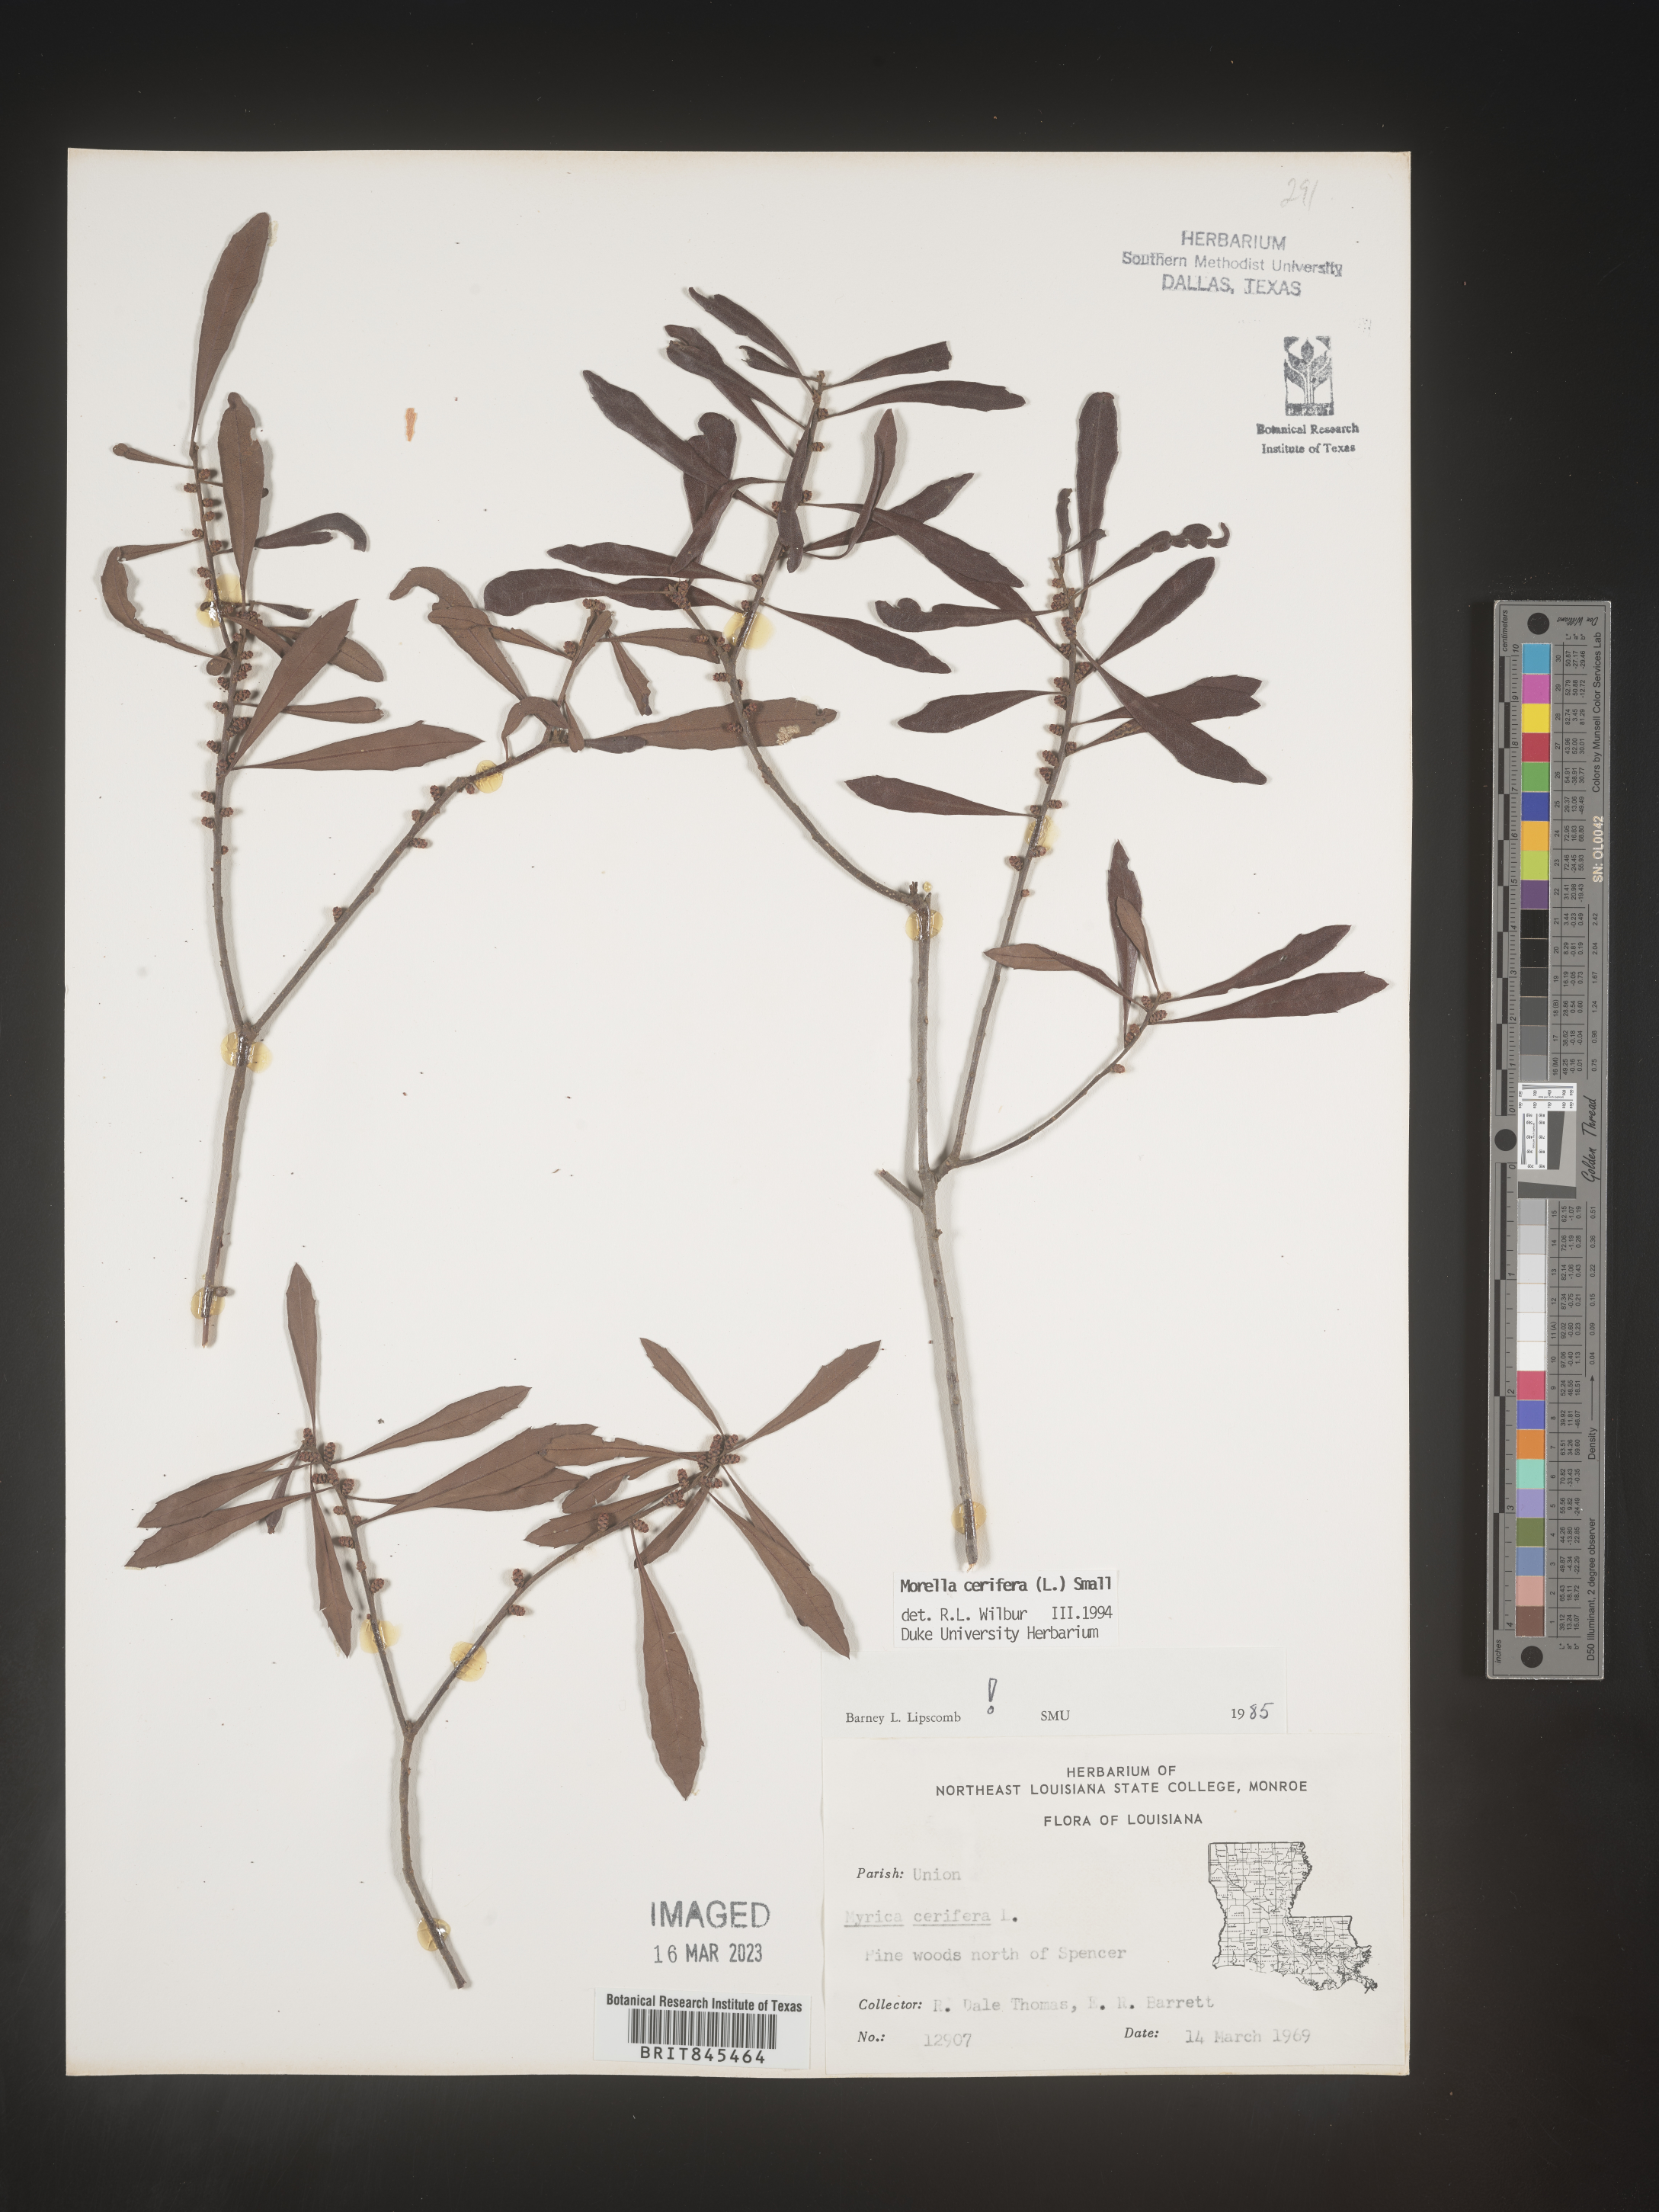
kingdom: Plantae
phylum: Tracheophyta
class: Magnoliopsida
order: Fagales
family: Myricaceae
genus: Morella
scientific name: Morella cerifera
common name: Wax myrtle
